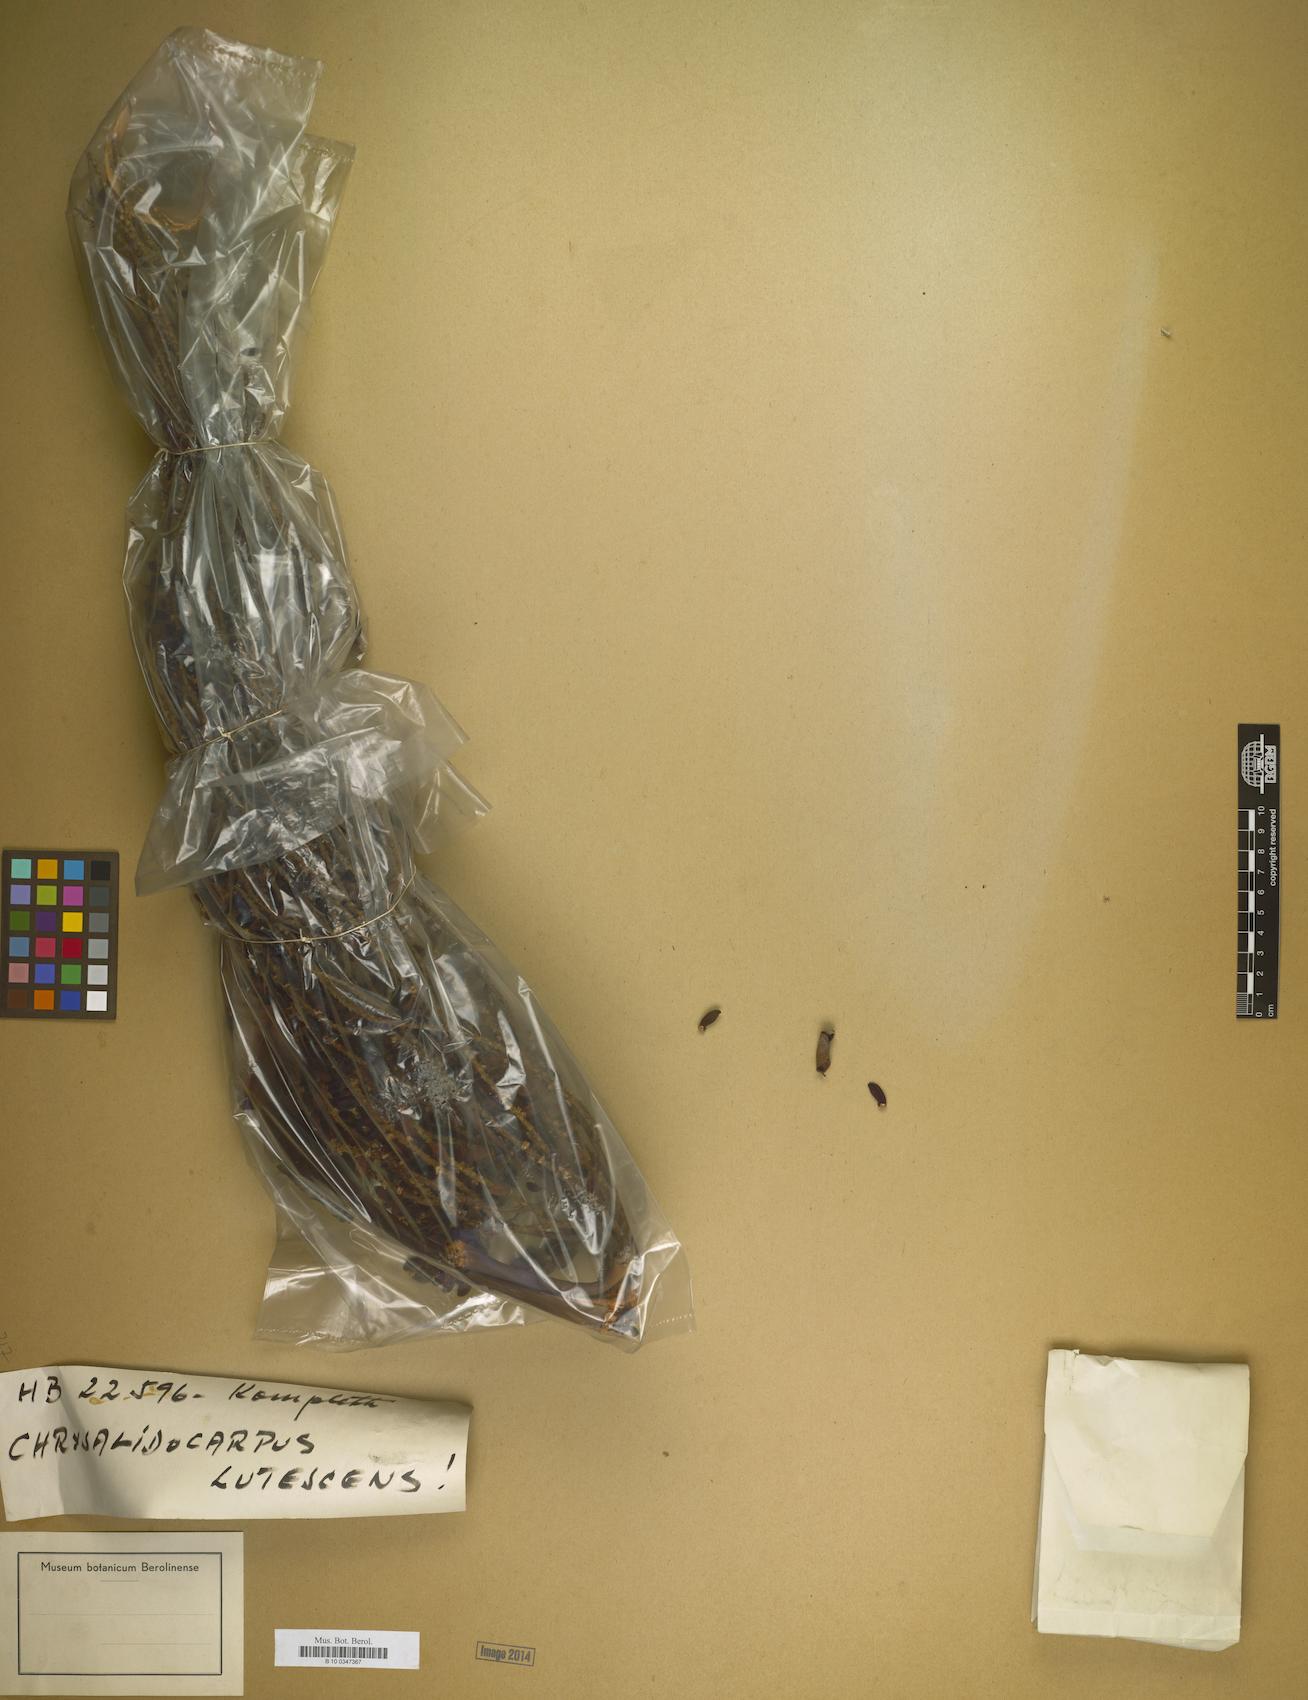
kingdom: Plantae
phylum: Tracheophyta
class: Liliopsida
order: Arecales
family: Arecaceae
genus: Dypsis
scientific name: Dypsis lutescens
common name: Yellow butterfly palm
